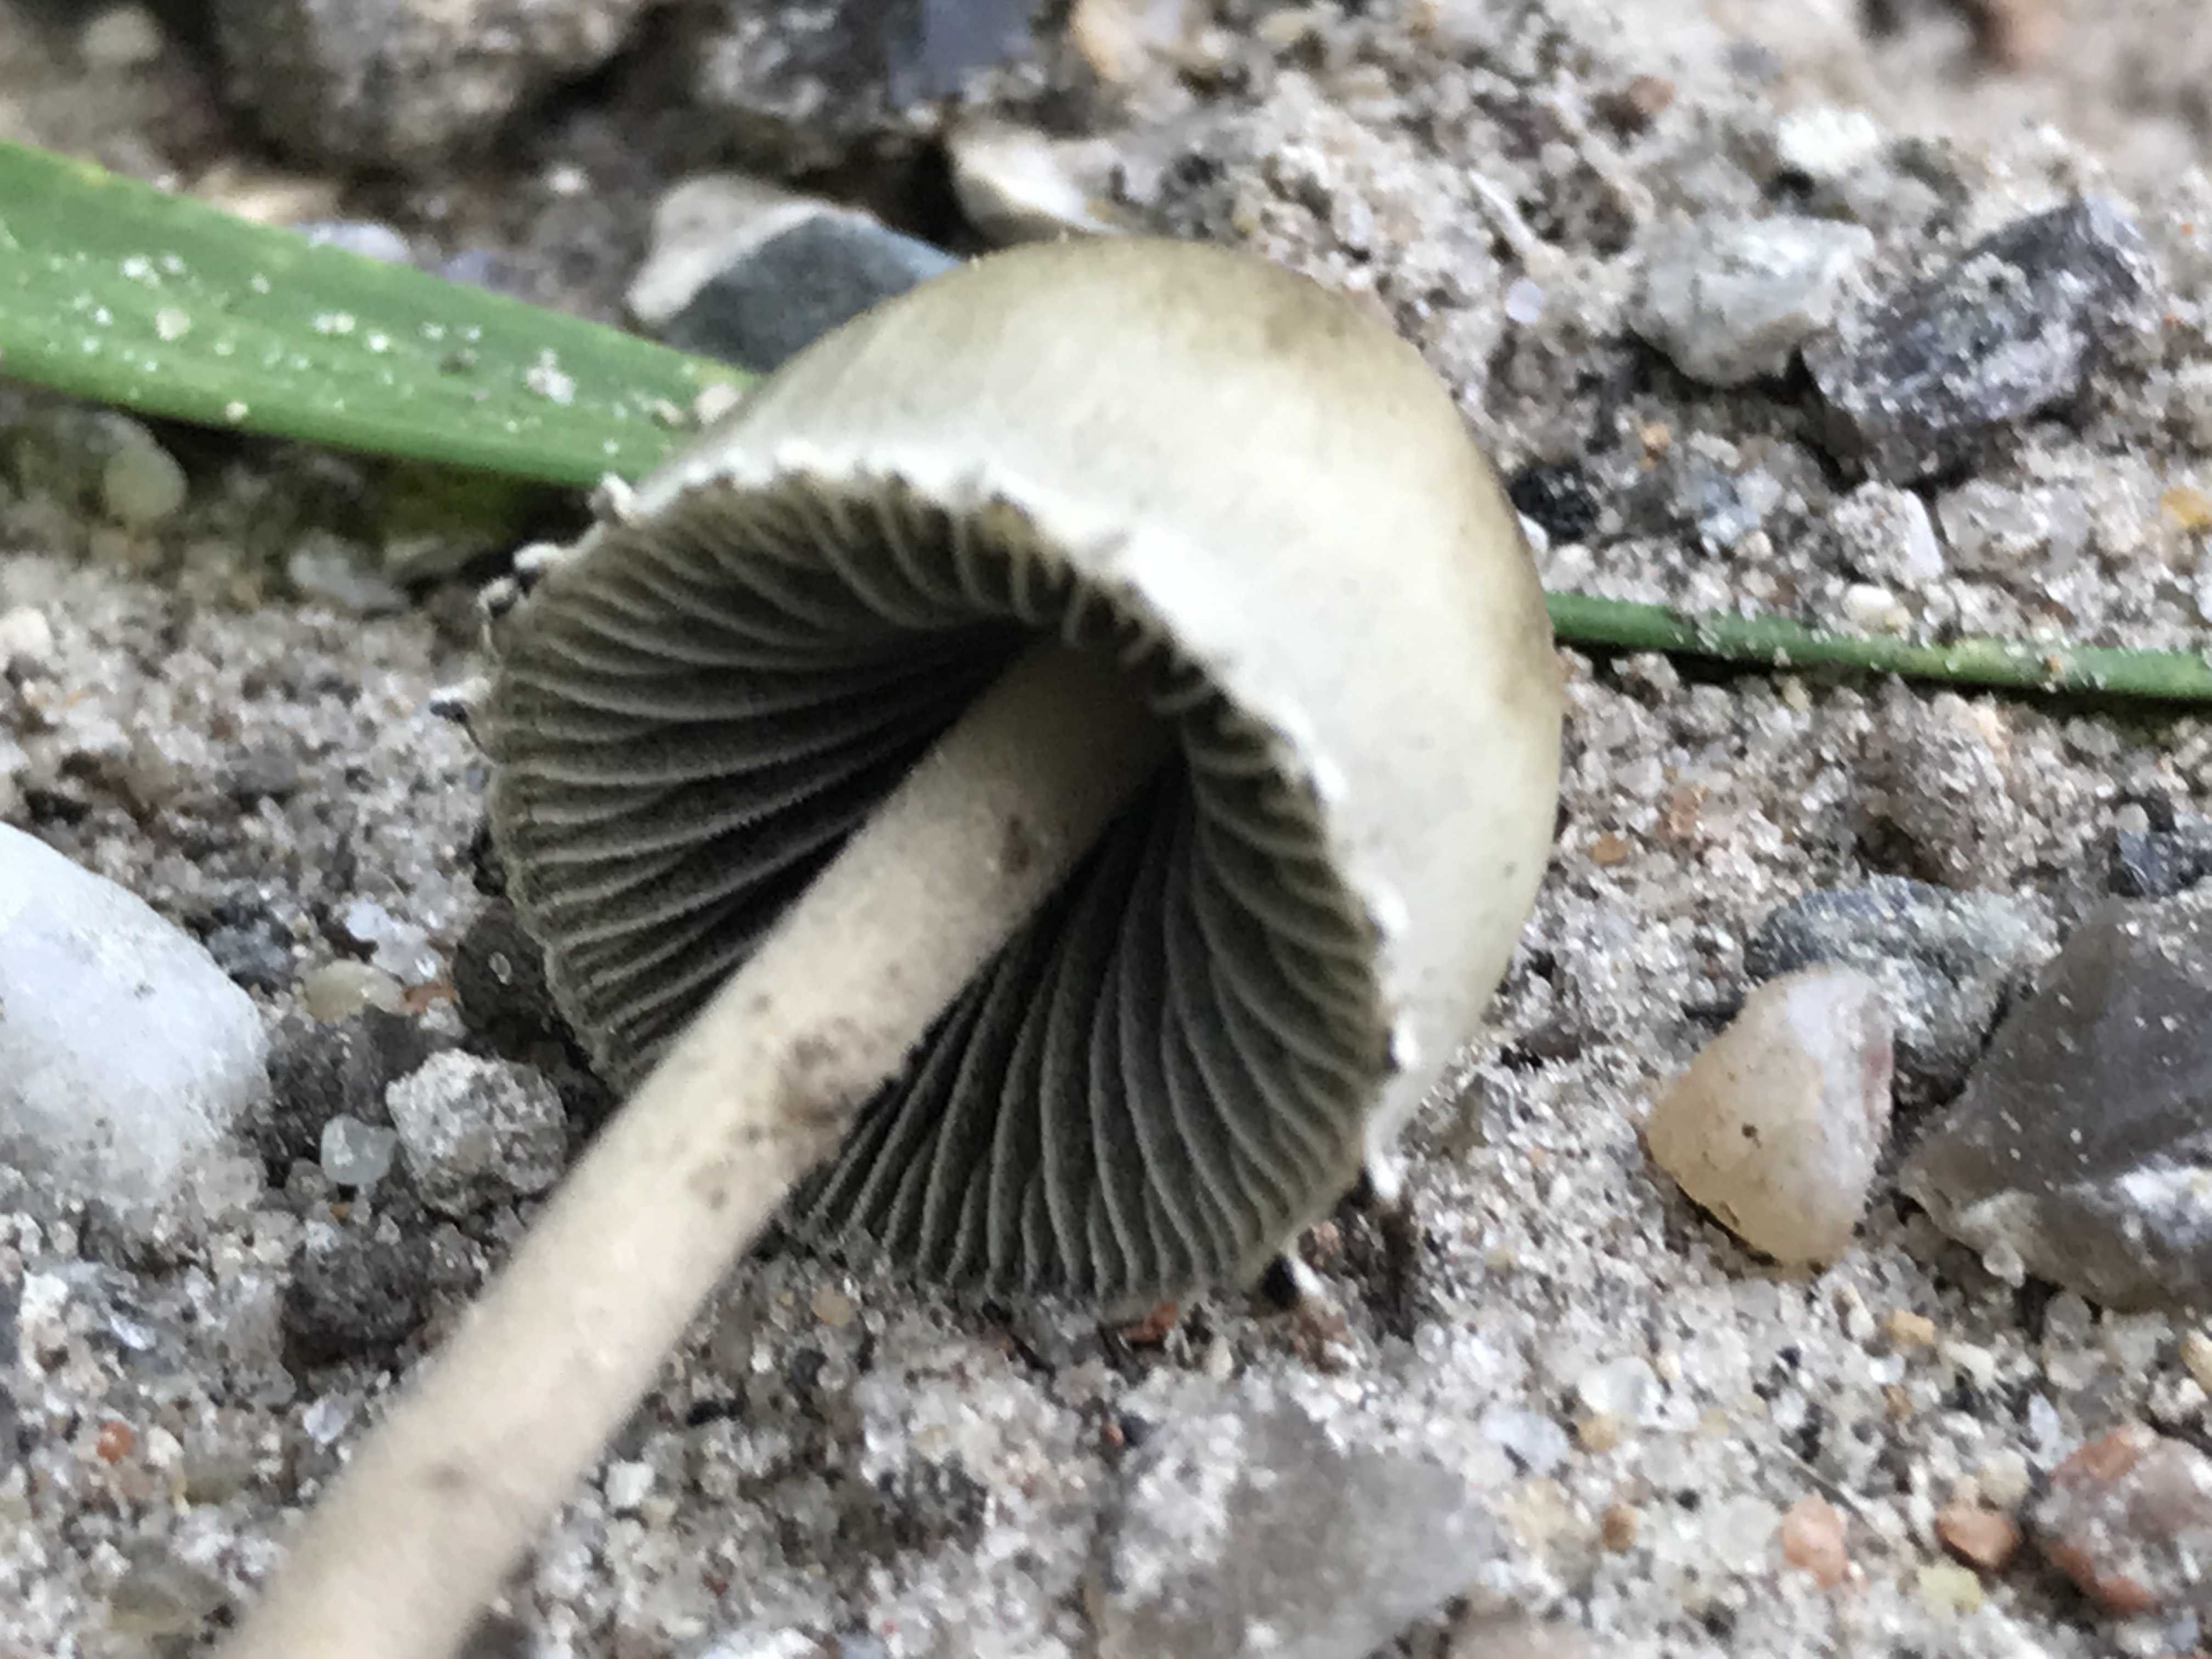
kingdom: Fungi
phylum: Basidiomycota
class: Agaricomycetes
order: Agaricales
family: Bolbitiaceae
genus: Panaeolus
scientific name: Panaeolus papilionaceus
